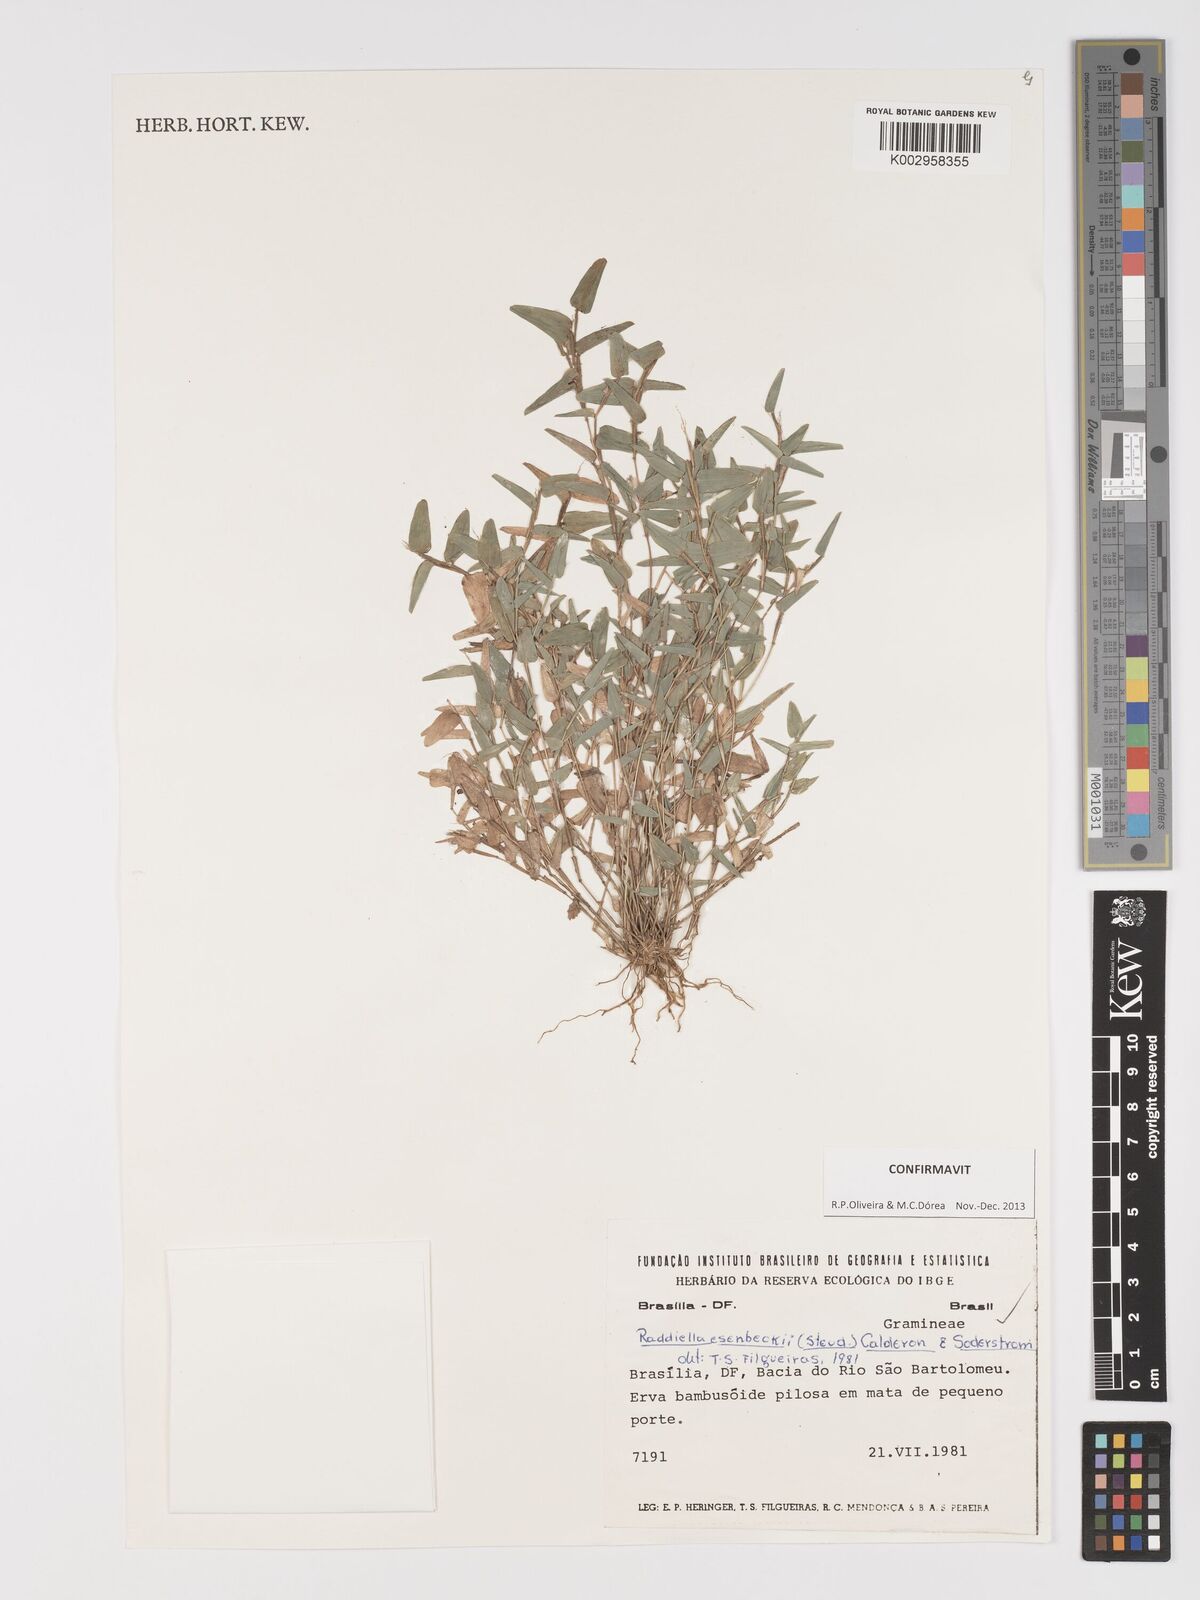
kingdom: Plantae
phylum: Tracheophyta
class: Liliopsida
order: Poales
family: Poaceae
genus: Raddiella
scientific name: Raddiella esenbeckii
